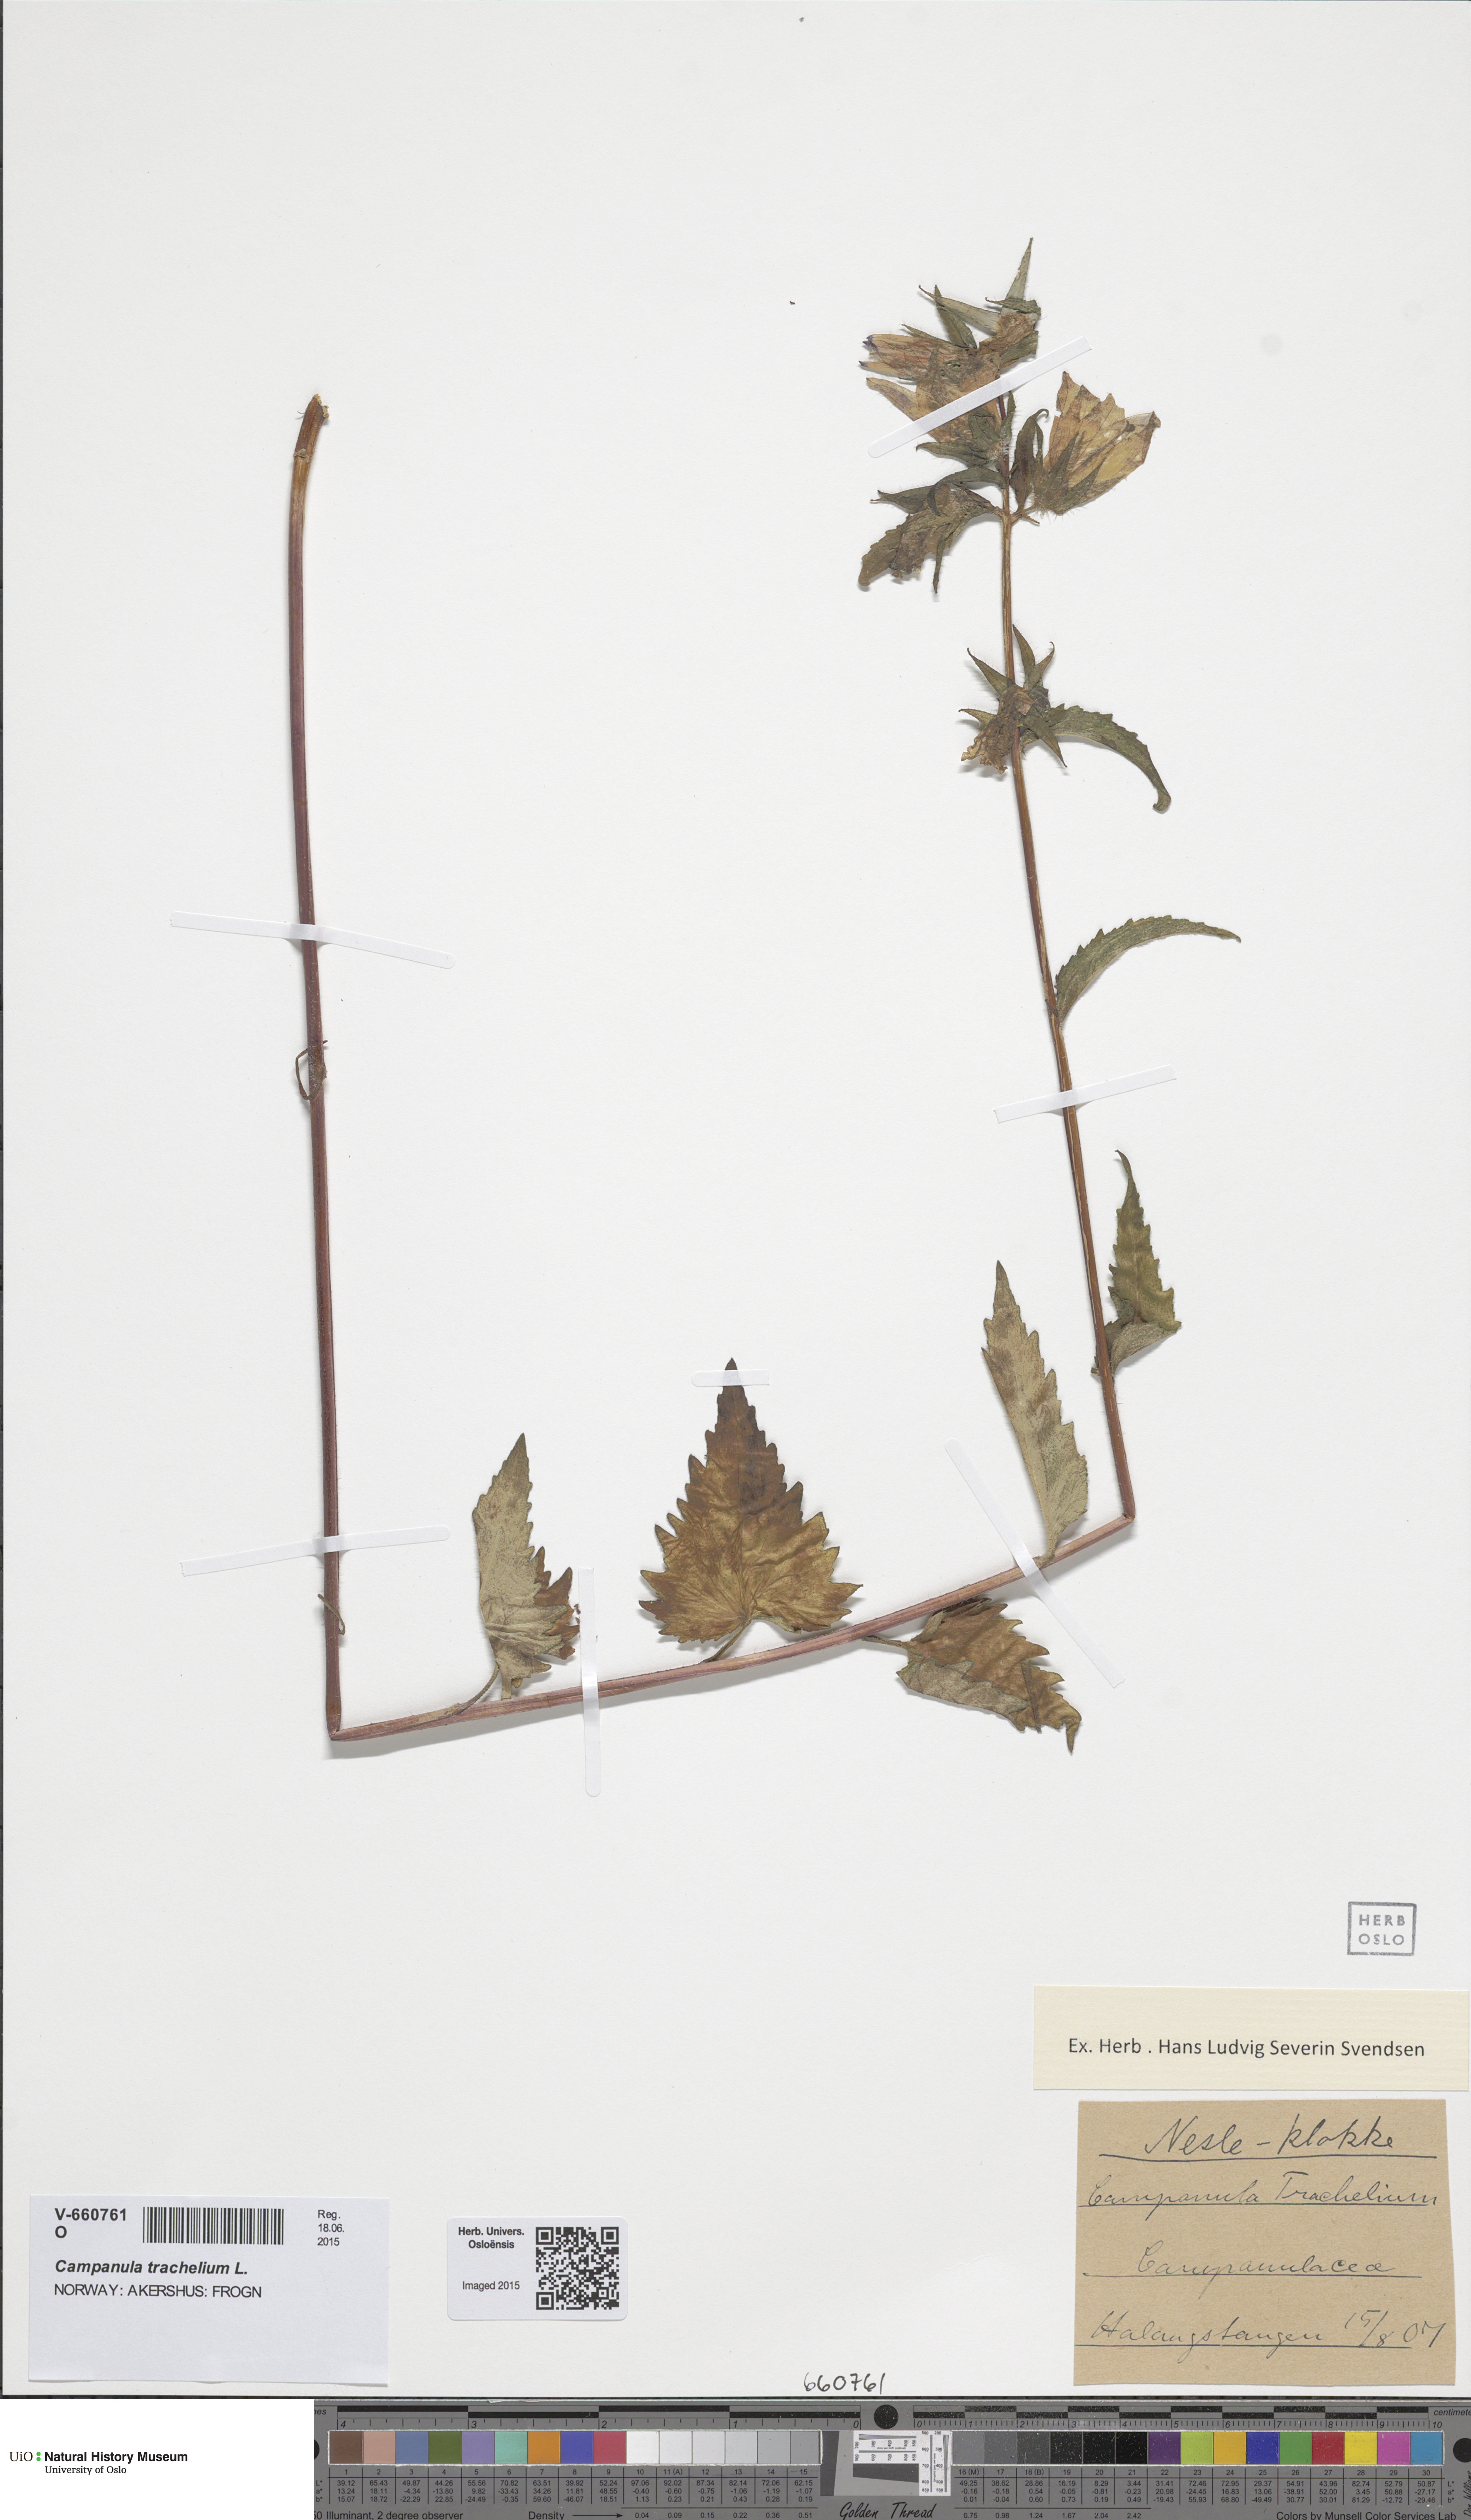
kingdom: Plantae
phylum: Tracheophyta
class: Magnoliopsida
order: Asterales
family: Campanulaceae
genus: Campanula
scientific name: Campanula trachelium
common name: Nettle-leaved bellflower
